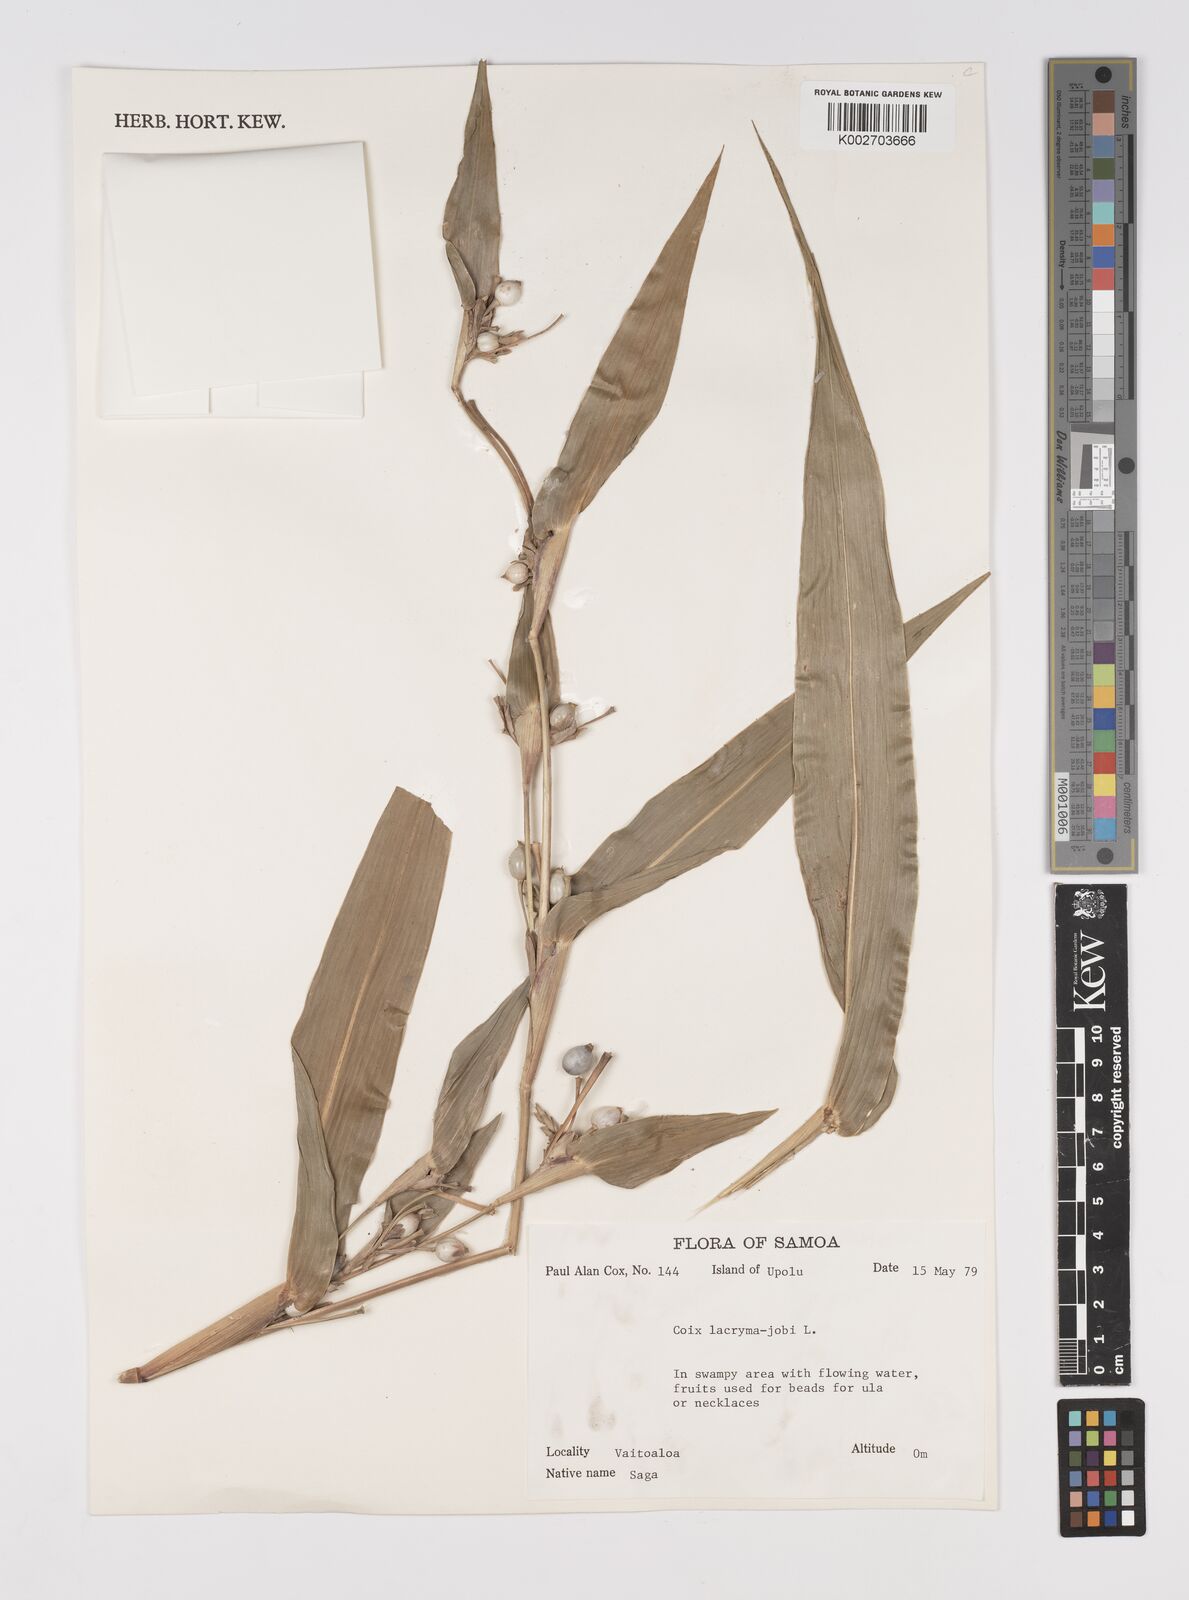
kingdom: Plantae
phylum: Tracheophyta
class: Liliopsida
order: Poales
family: Poaceae
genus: Coix
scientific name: Coix lacryma-jobi
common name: Job's tears
